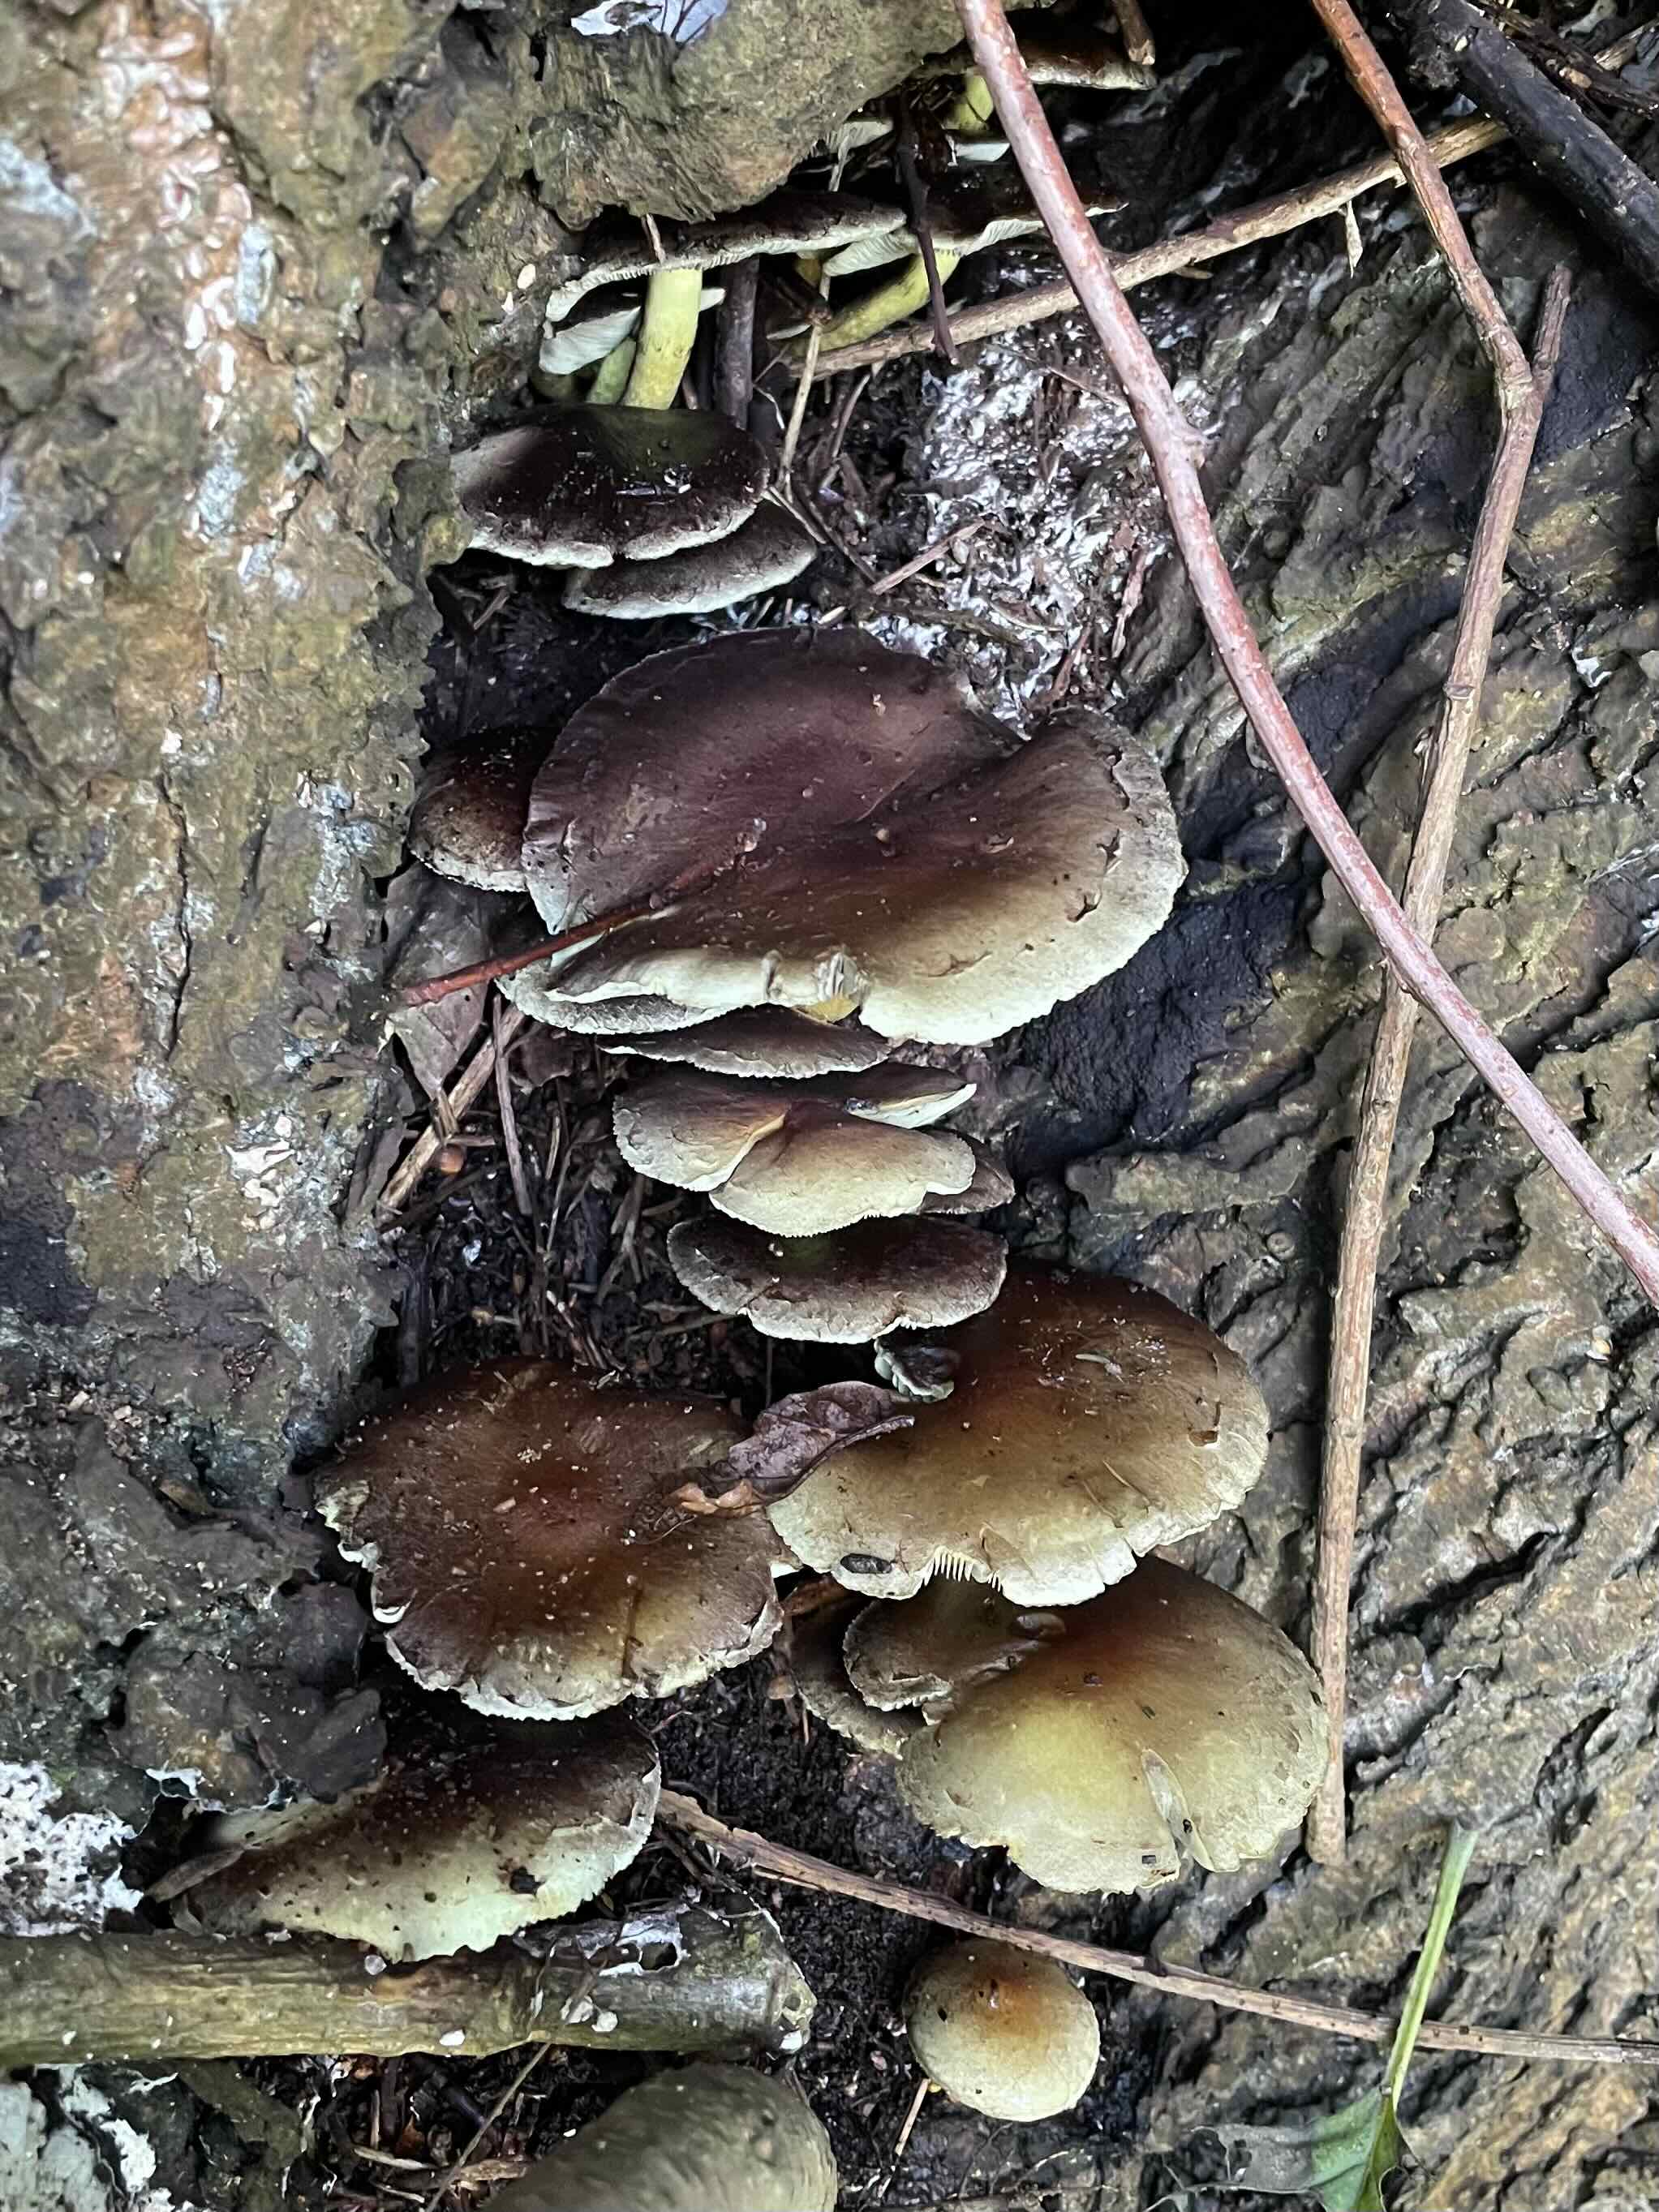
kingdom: Fungi
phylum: Basidiomycota
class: Agaricomycetes
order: Agaricales
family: Strophariaceae
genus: Hypholoma
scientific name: Hypholoma fasciculare
